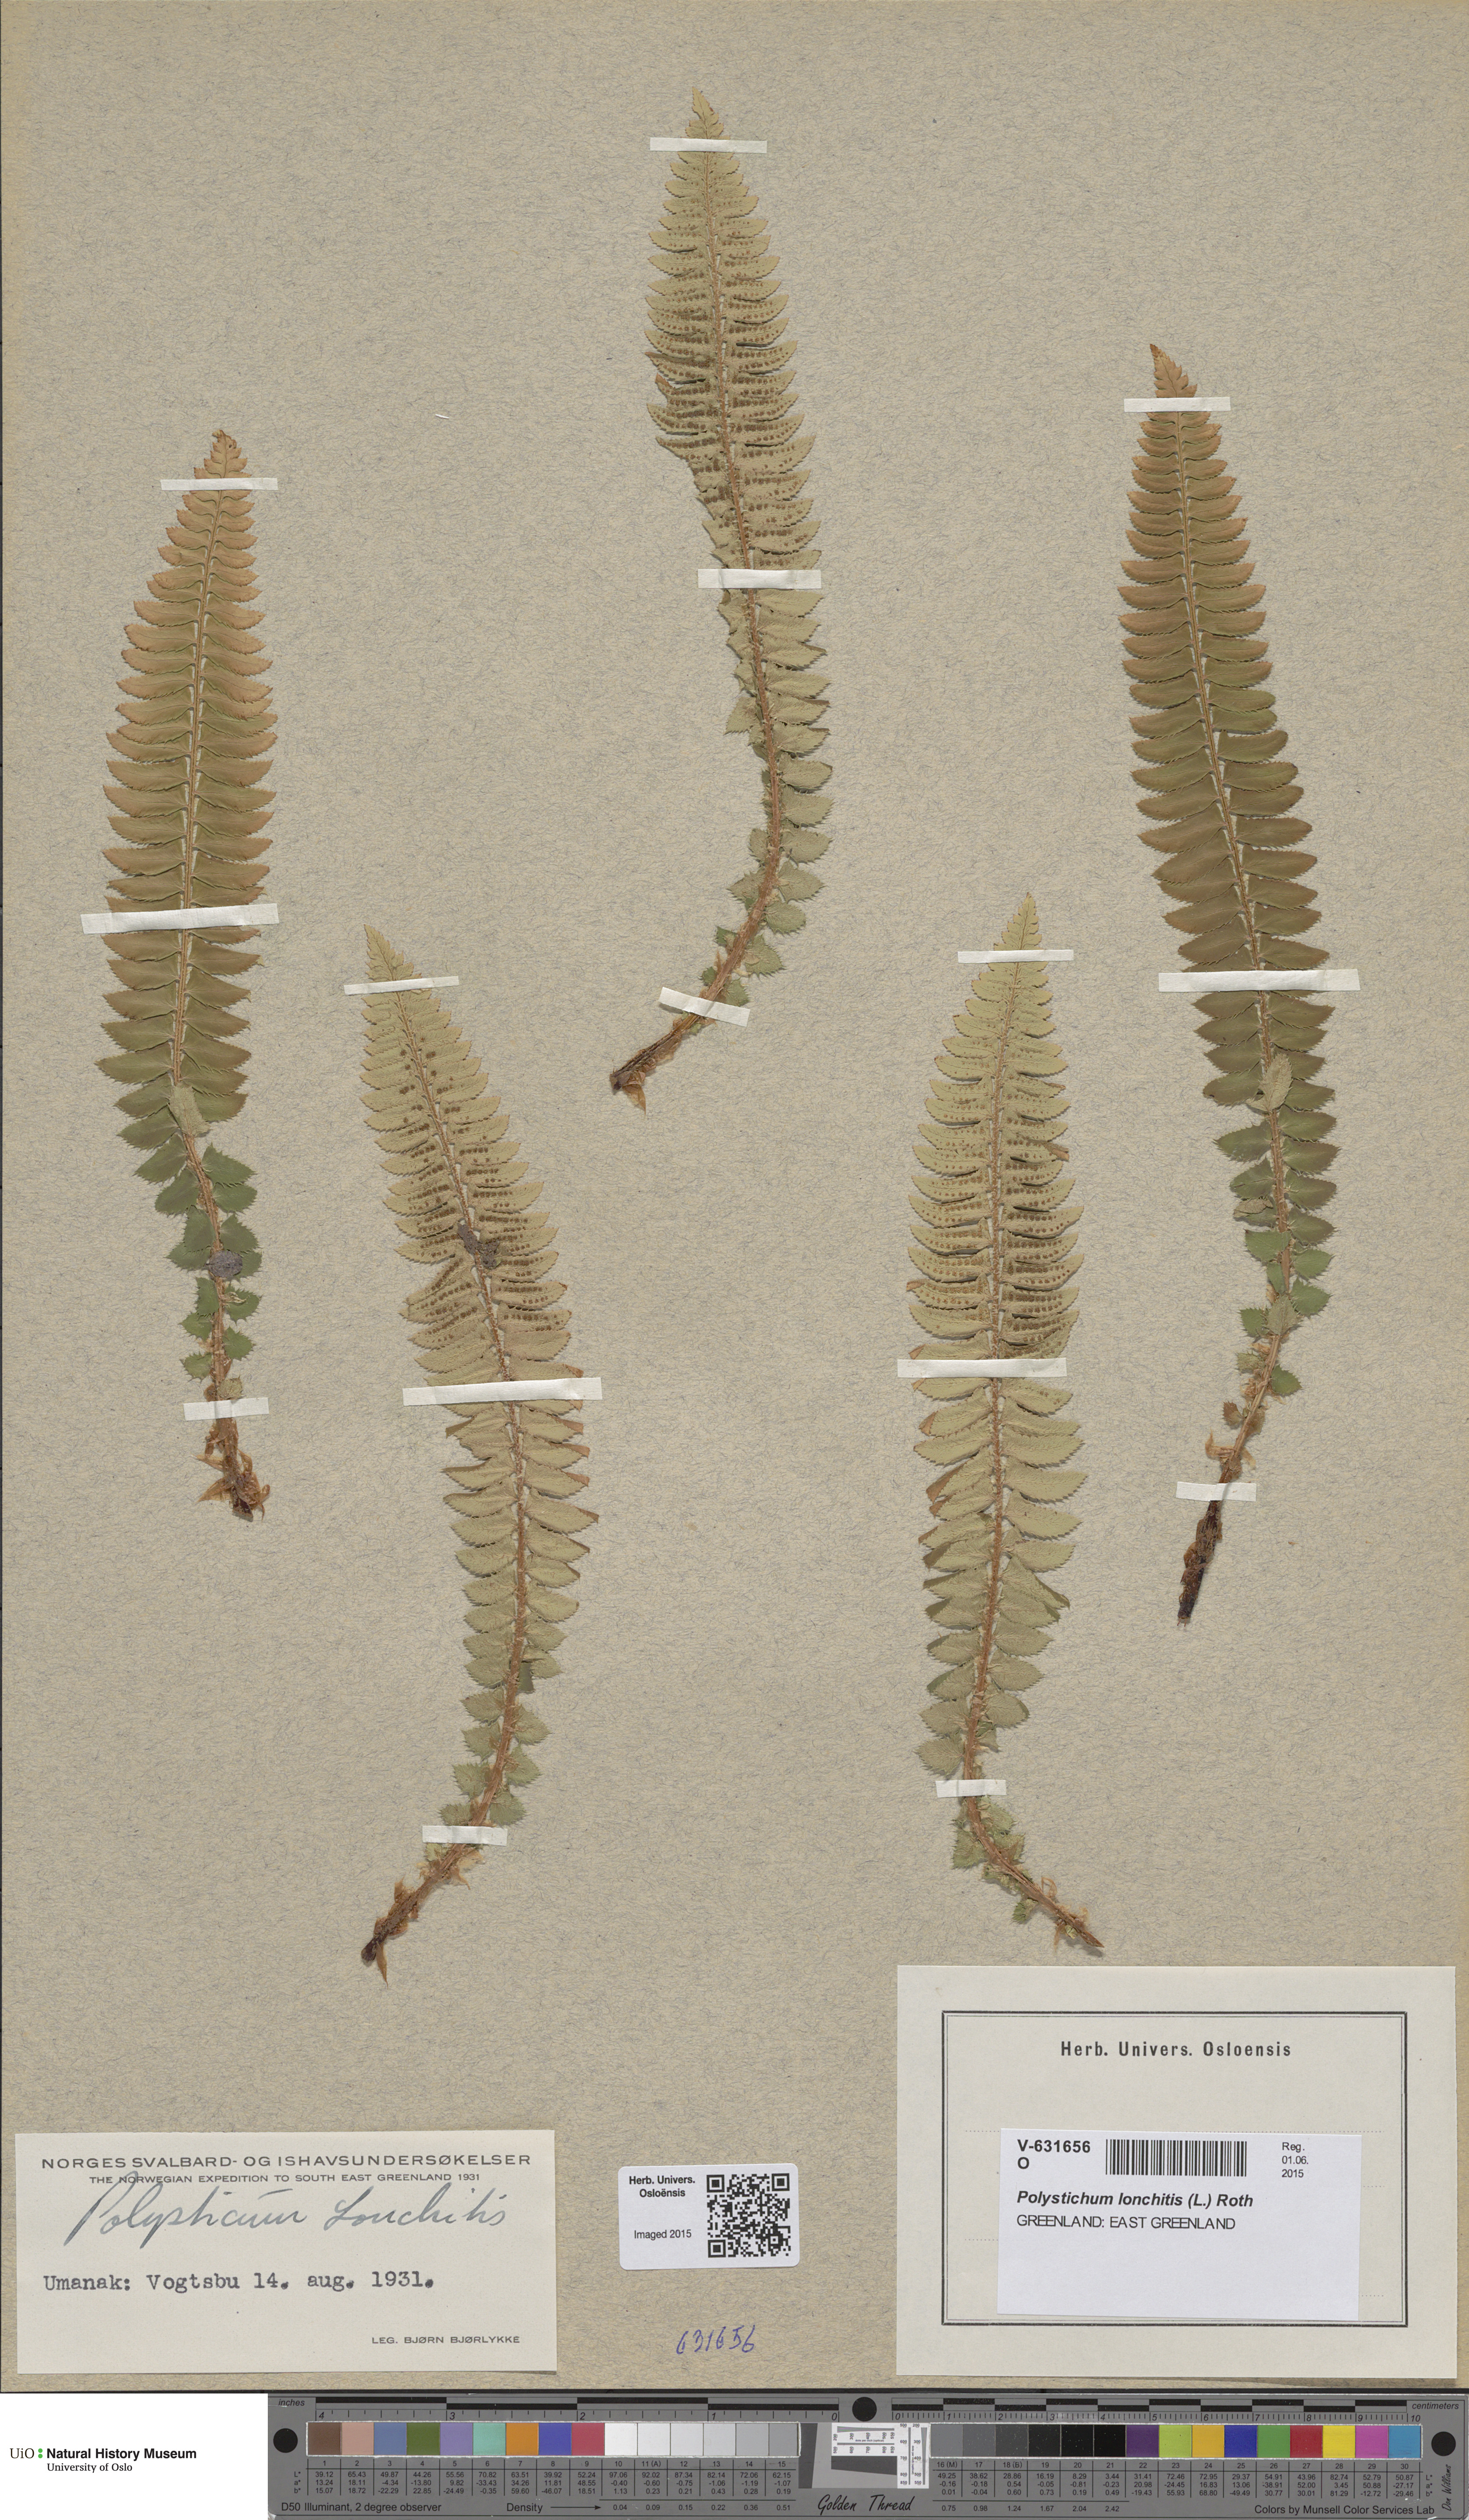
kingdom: Plantae
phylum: Tracheophyta
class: Polypodiopsida
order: Polypodiales
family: Dryopteridaceae
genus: Polystichum
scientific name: Polystichum lonchitis
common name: Holly fern
